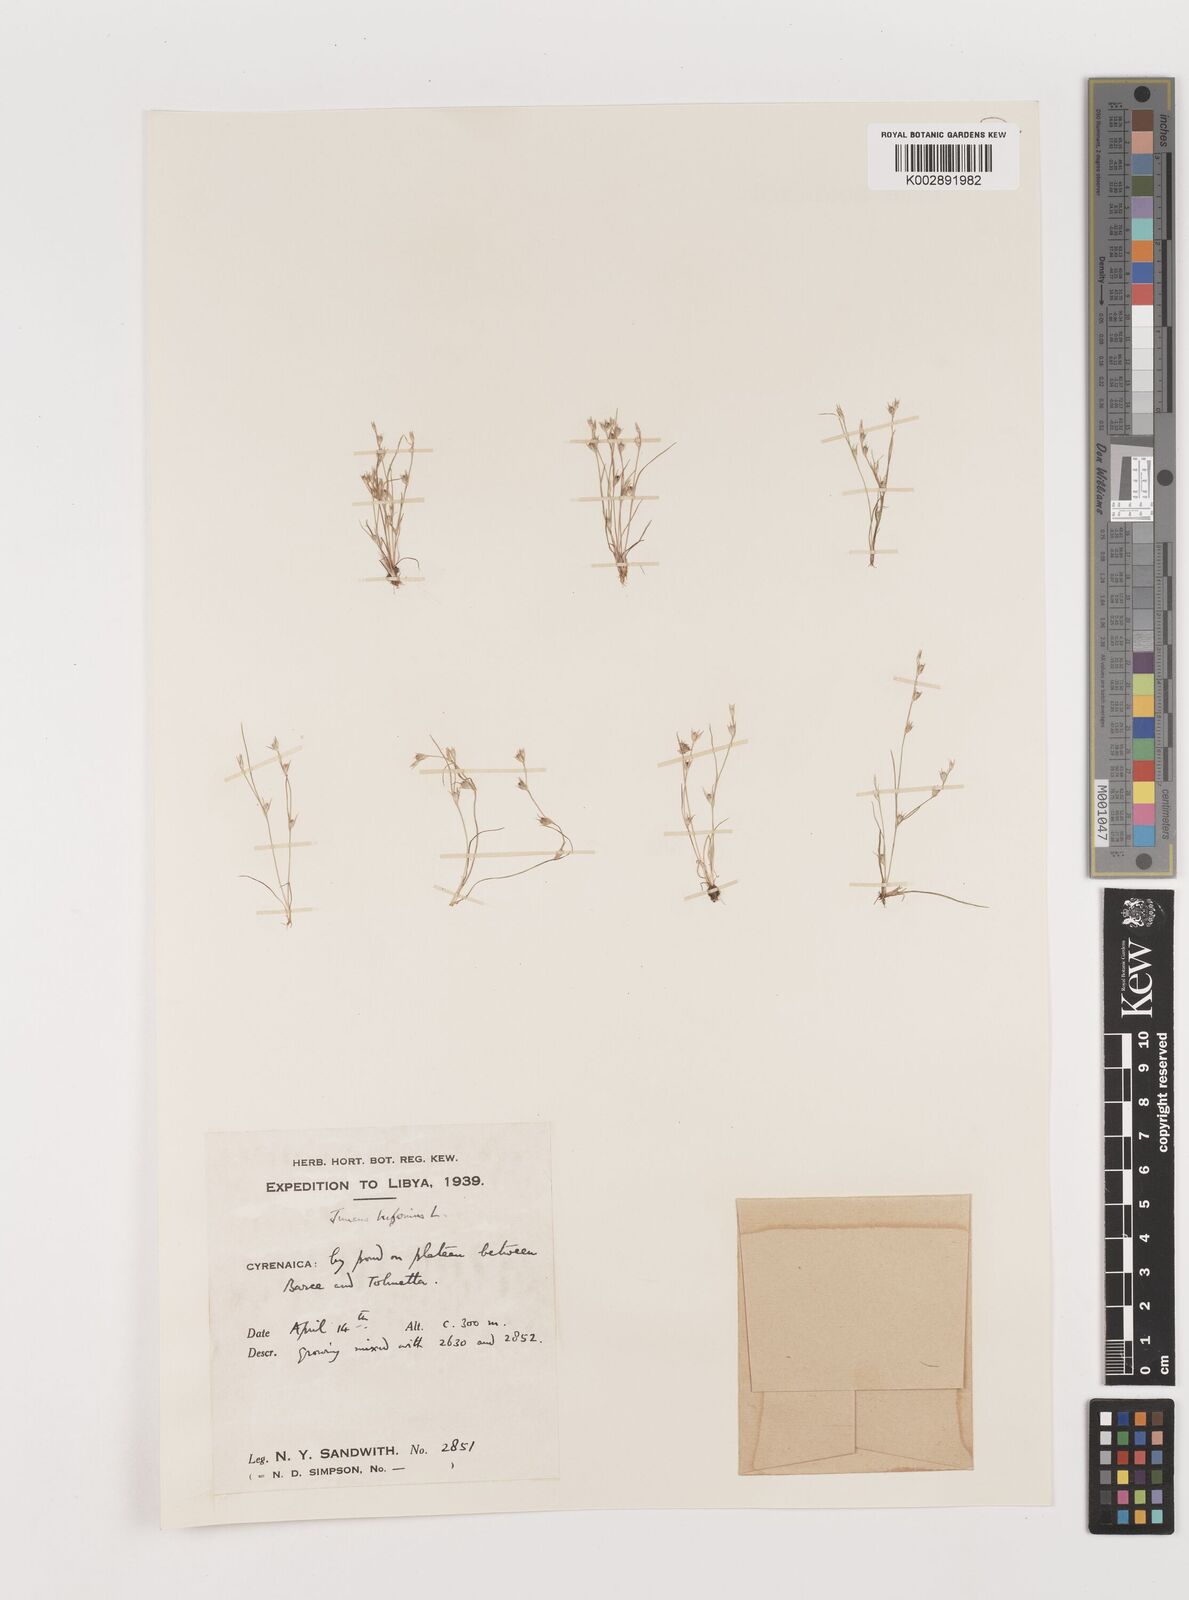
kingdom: Plantae
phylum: Tracheophyta
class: Liliopsida
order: Poales
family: Juncaceae
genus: Juncus
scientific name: Juncus bufonius
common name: Toad rush
